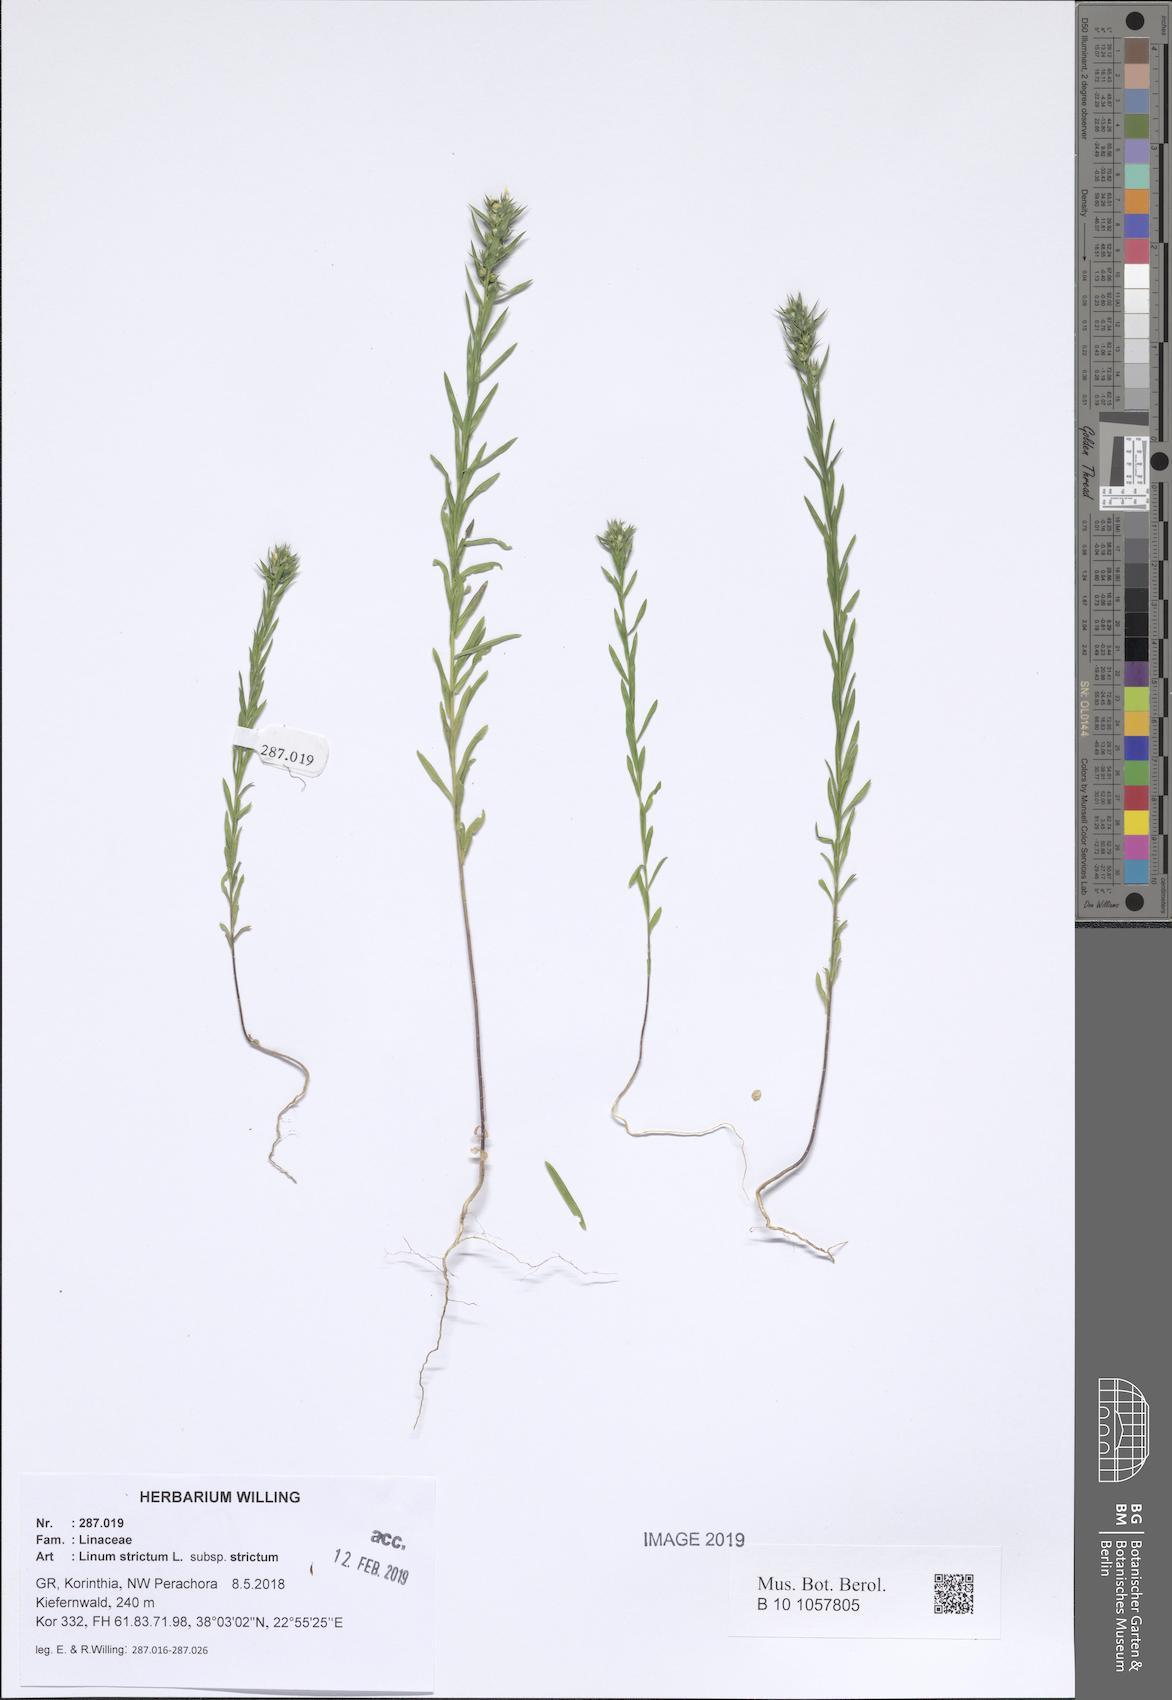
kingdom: Plantae
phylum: Tracheophyta
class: Magnoliopsida
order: Malpighiales
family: Linaceae
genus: Linum
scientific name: Linum strictum
